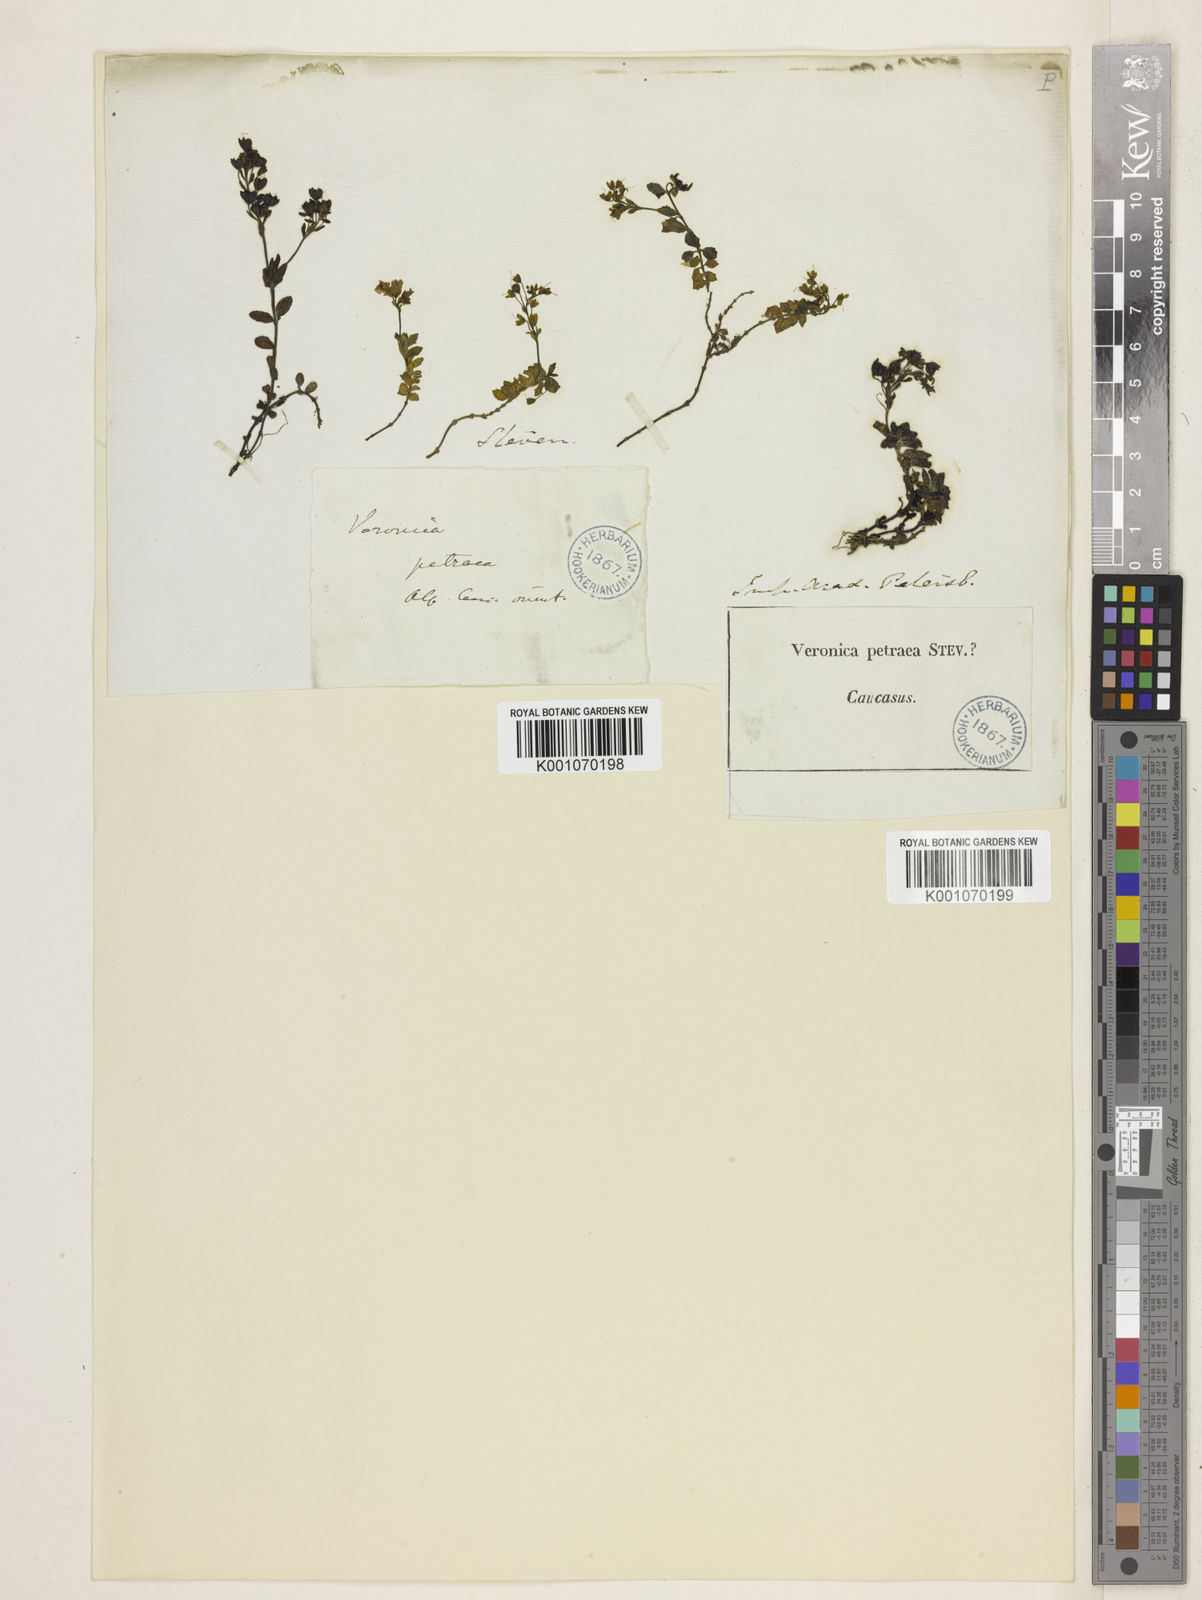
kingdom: Plantae
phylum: Tracheophyta
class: Magnoliopsida
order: Lamiales
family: Plantaginaceae
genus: Veronica
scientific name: Veronica petraea
